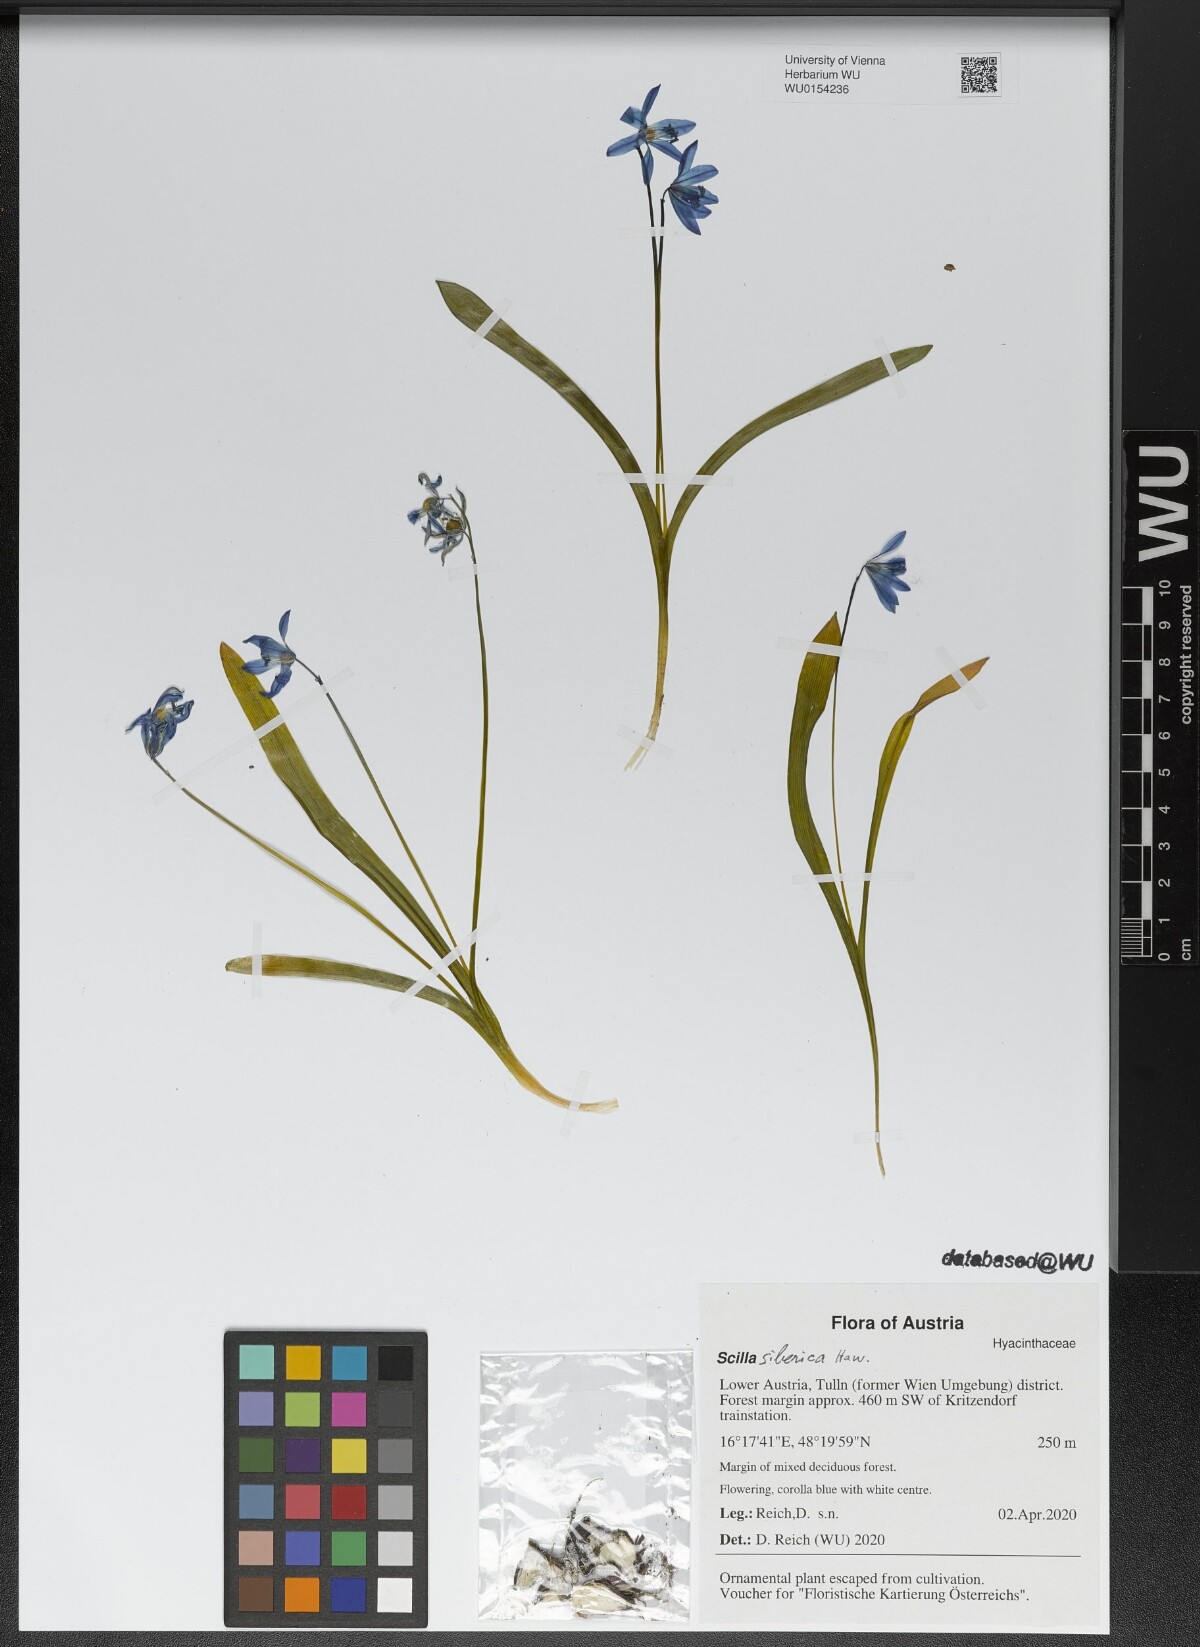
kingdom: Plantae
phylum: Tracheophyta
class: Liliopsida
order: Asparagales
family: Asparagaceae
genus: Scilla
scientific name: Scilla siberica
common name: Siberian squill
